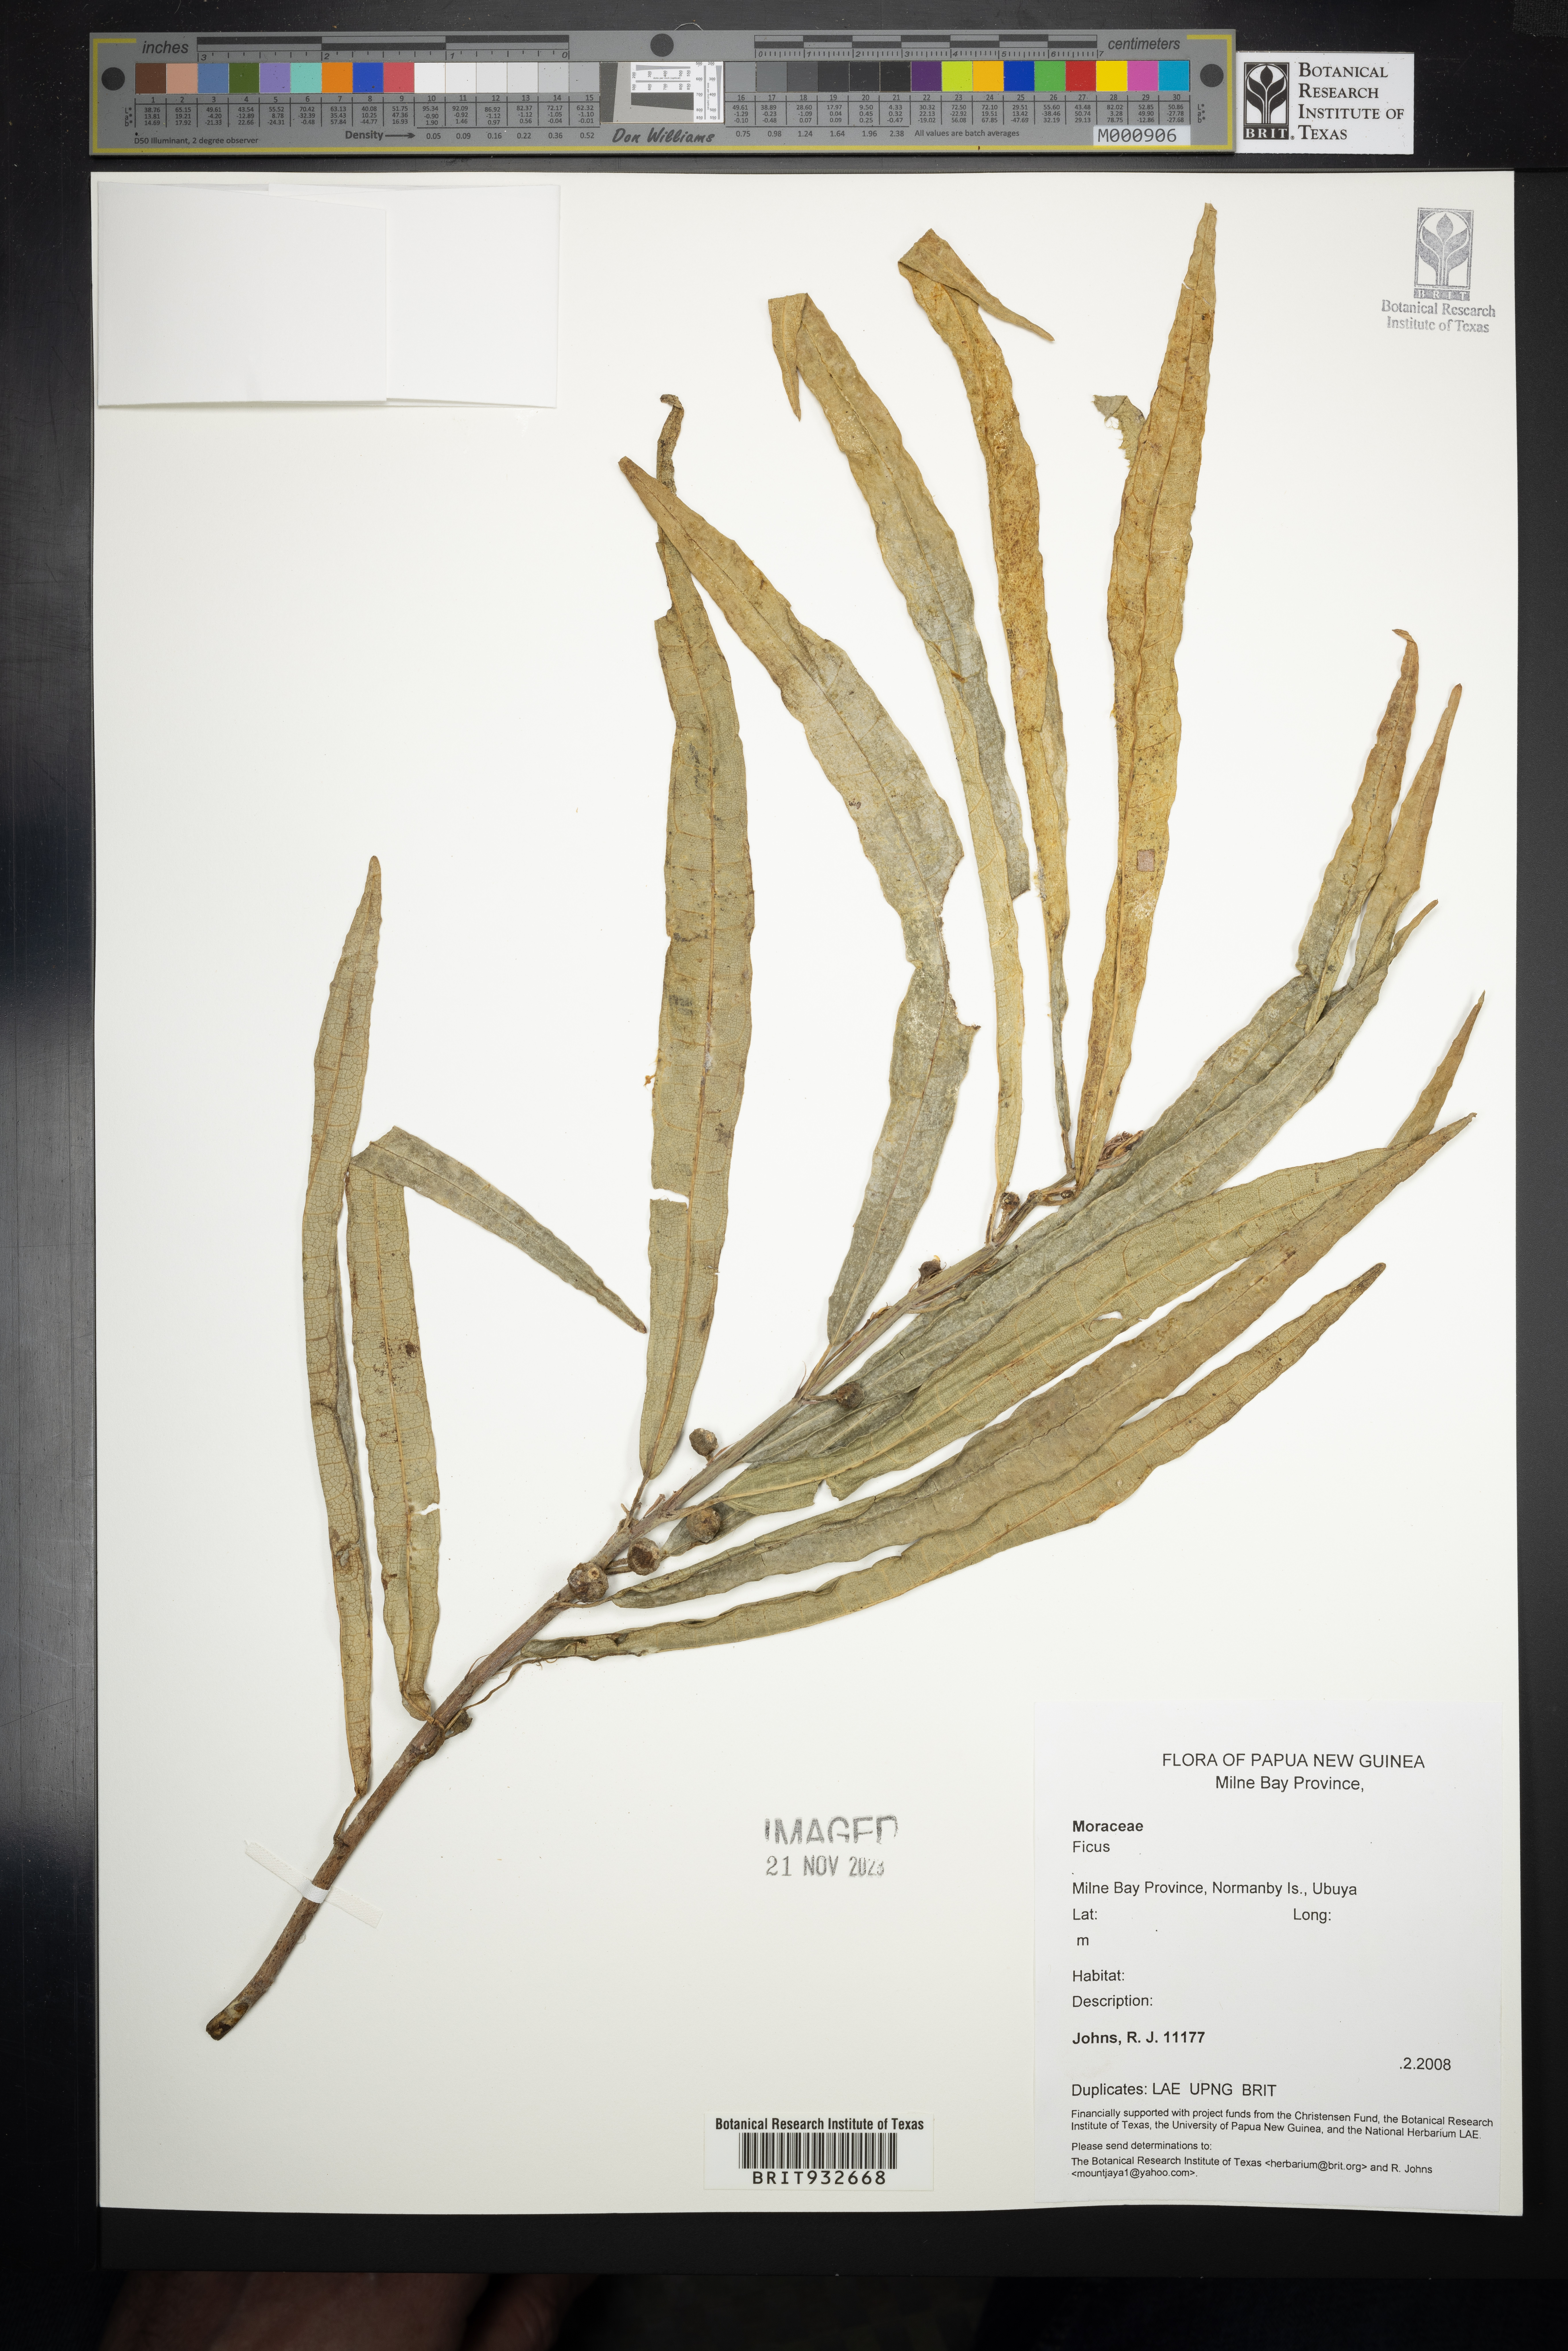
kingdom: Plantae
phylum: Tracheophyta
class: Magnoliopsida
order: Rosales
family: Moraceae
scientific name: Moraceae
